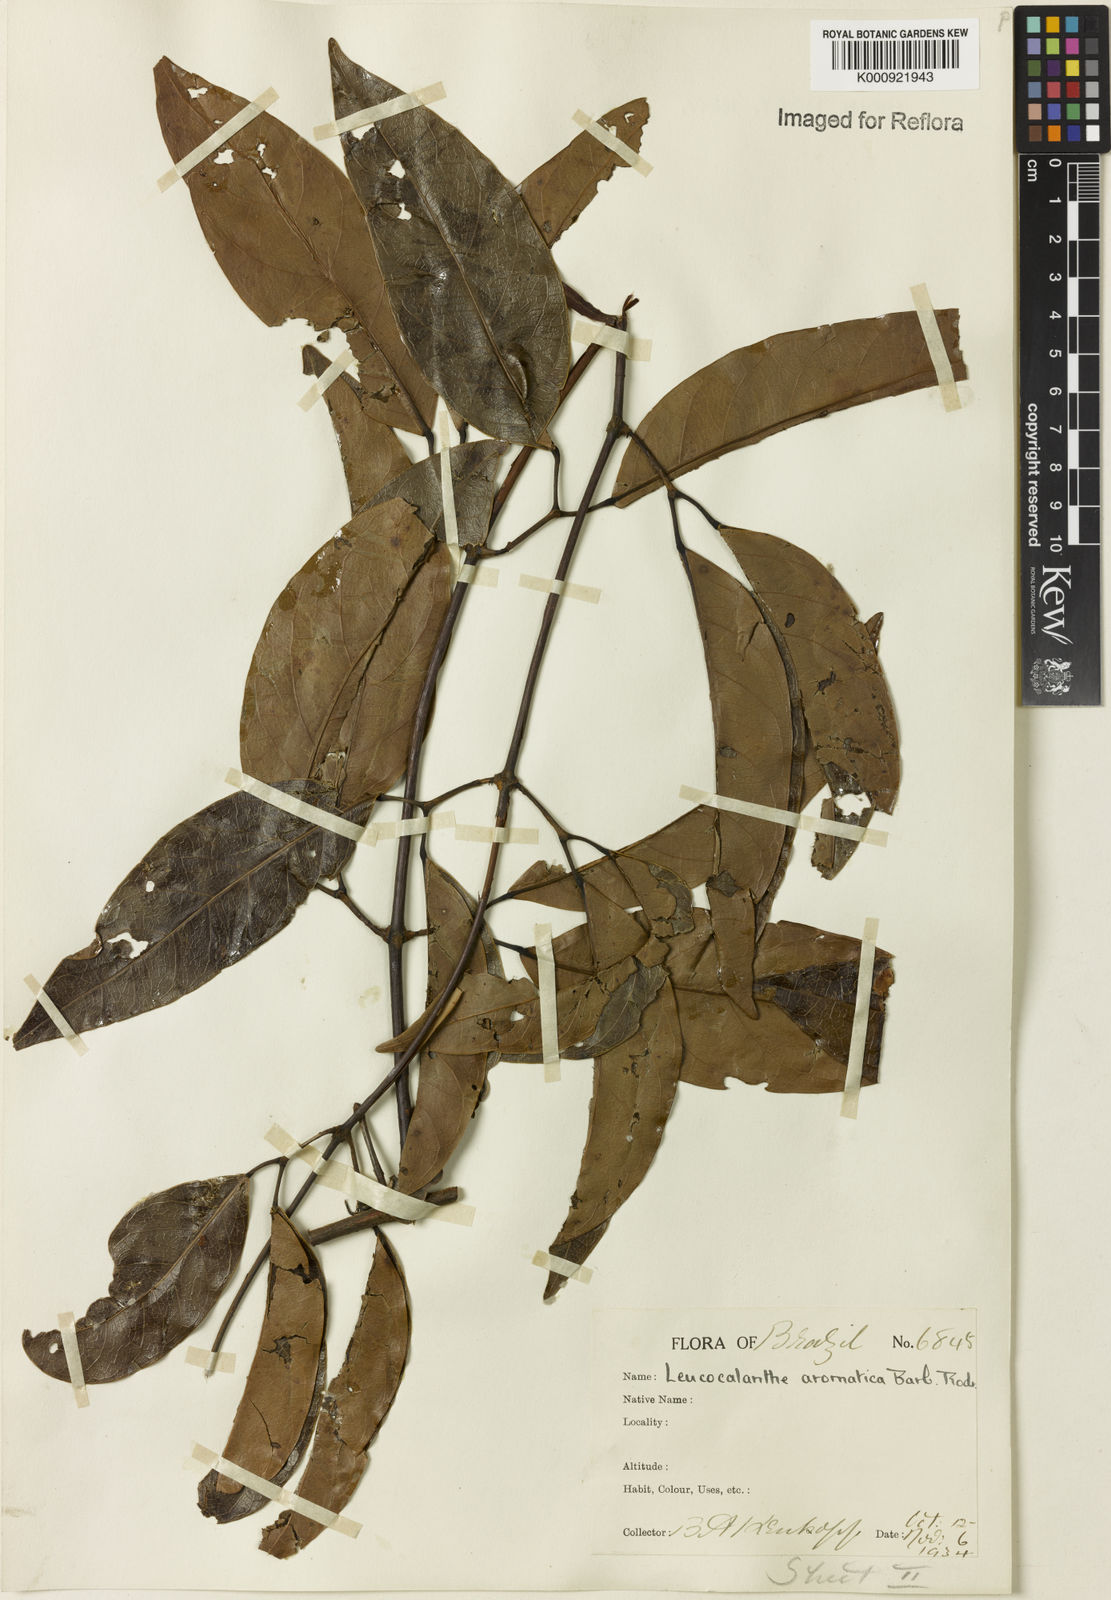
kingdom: Plantae
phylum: Tracheophyta
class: Magnoliopsida
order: Lamiales
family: Bignoniaceae
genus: Pachyptera
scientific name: Pachyptera aromatica
